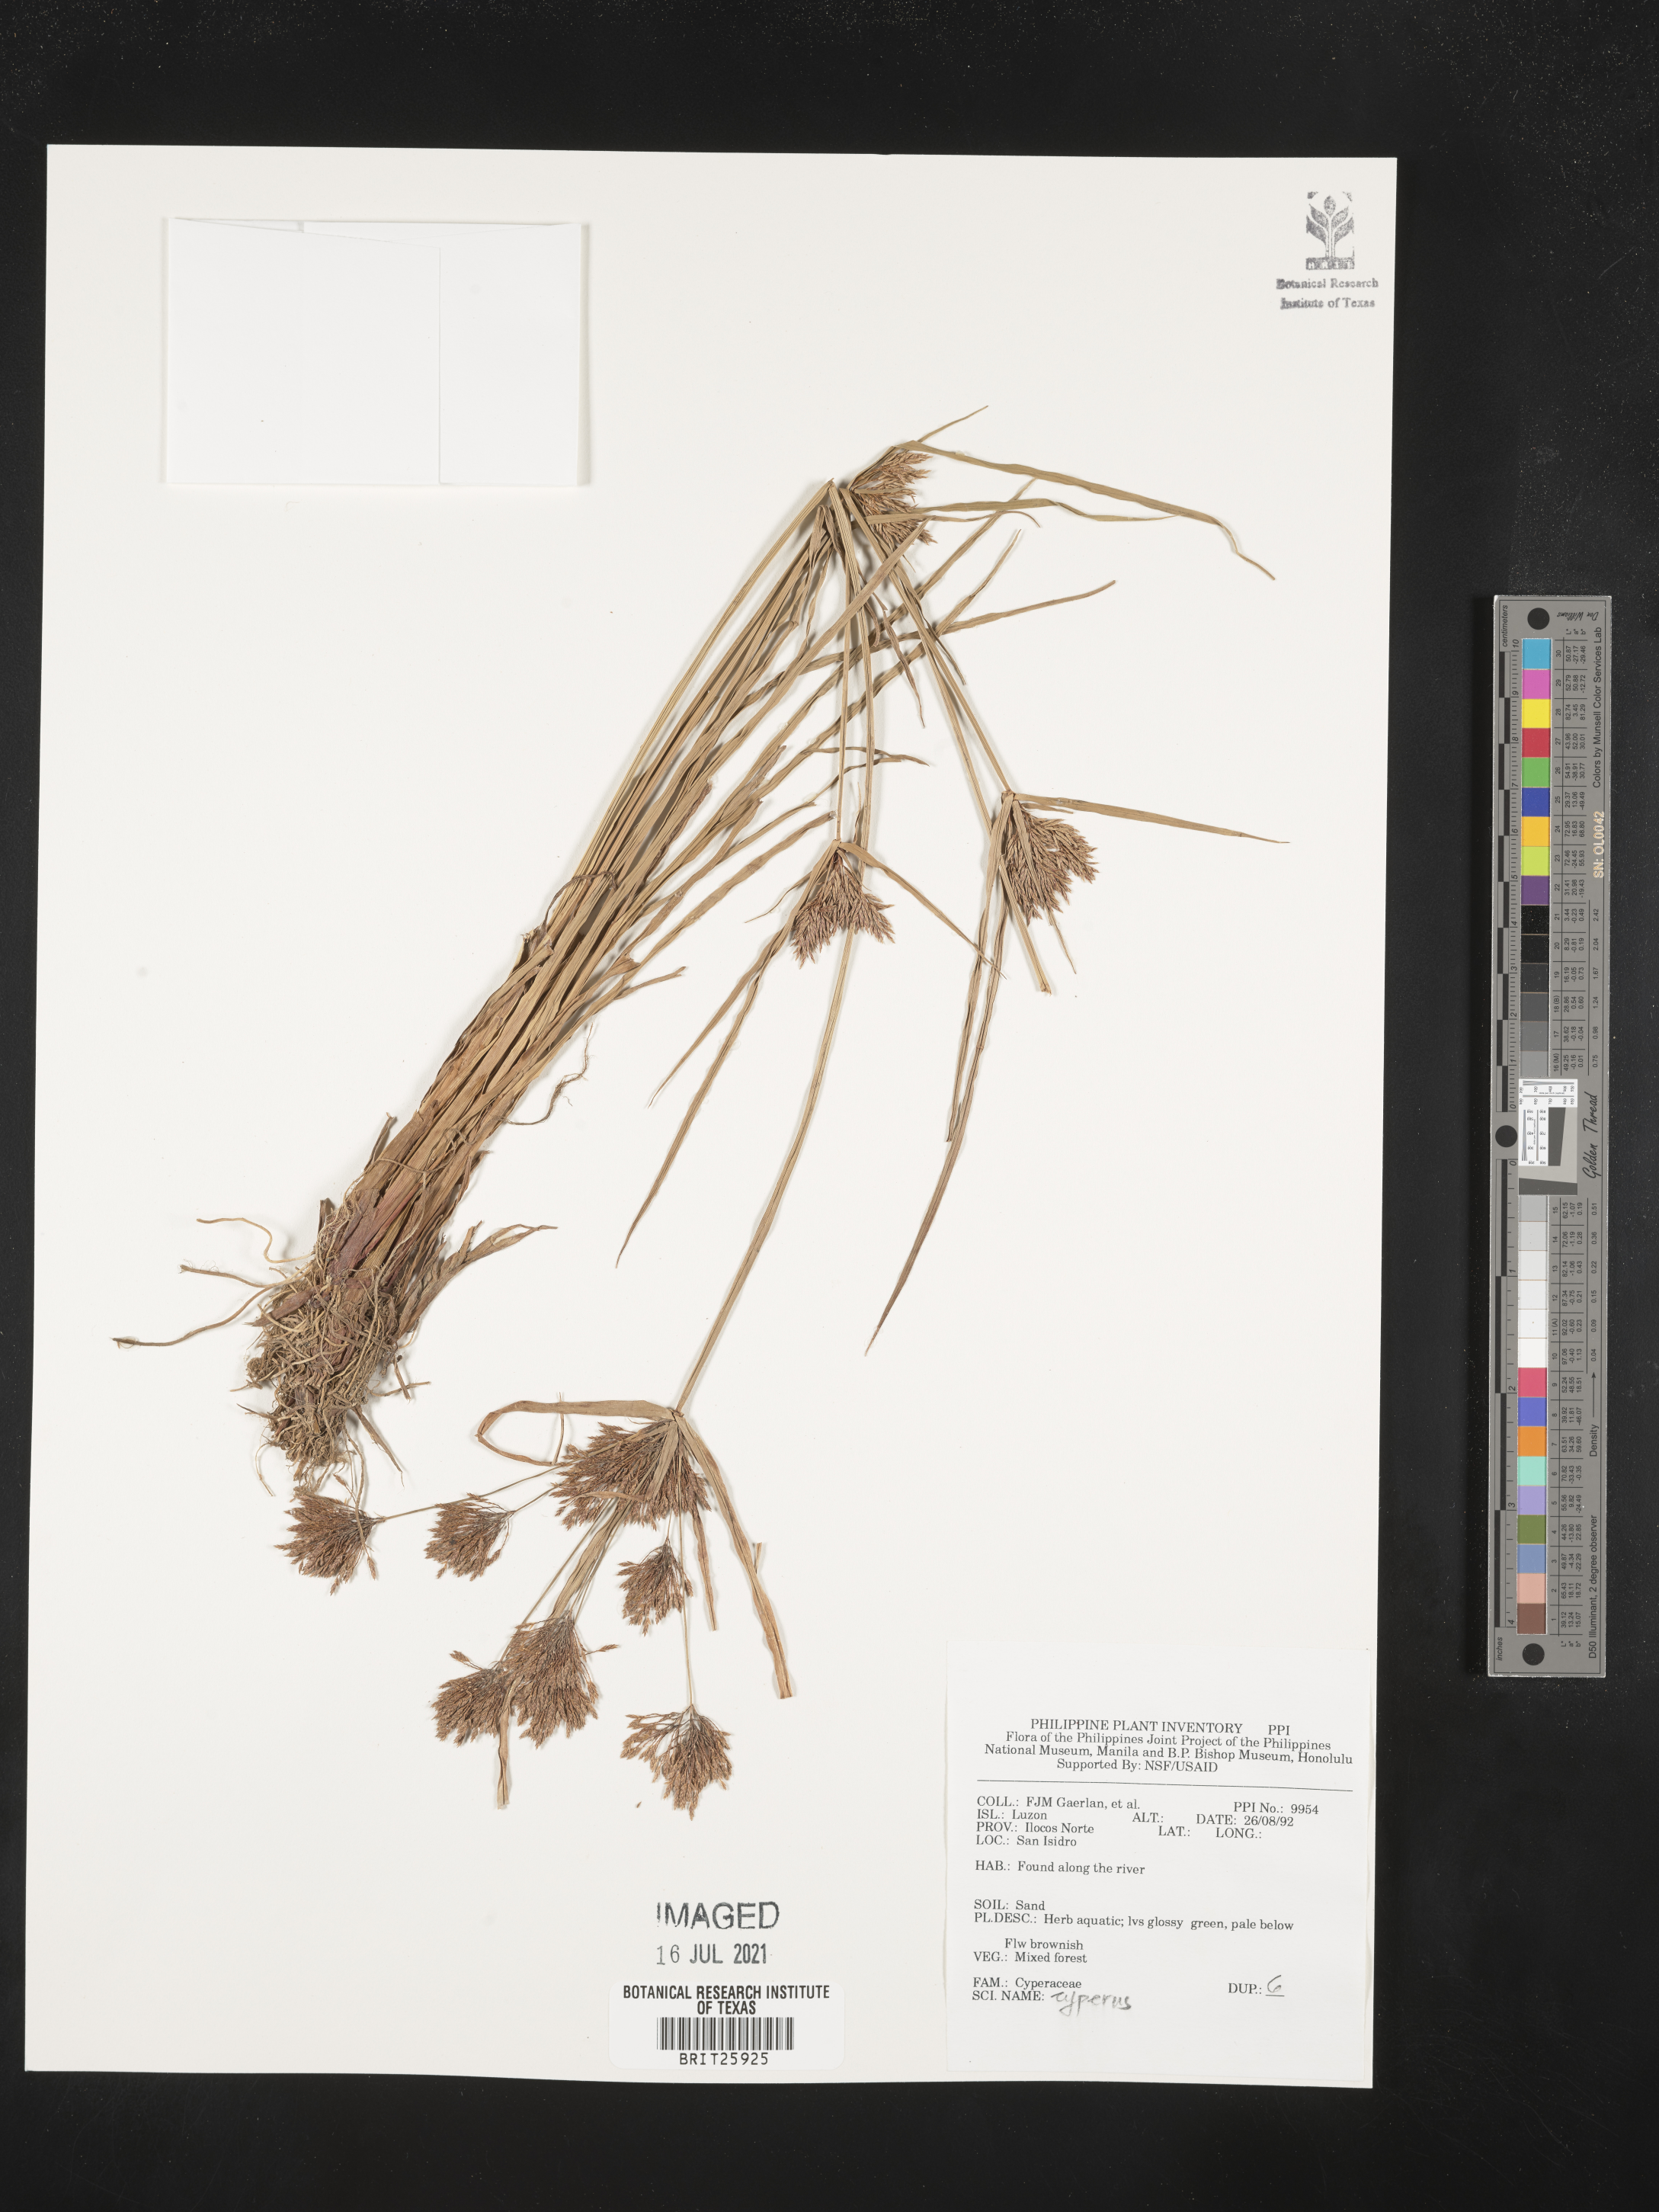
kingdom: Plantae
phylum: Tracheophyta
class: Liliopsida
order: Poales
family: Cyperaceae
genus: Cyperus
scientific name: Cyperus
